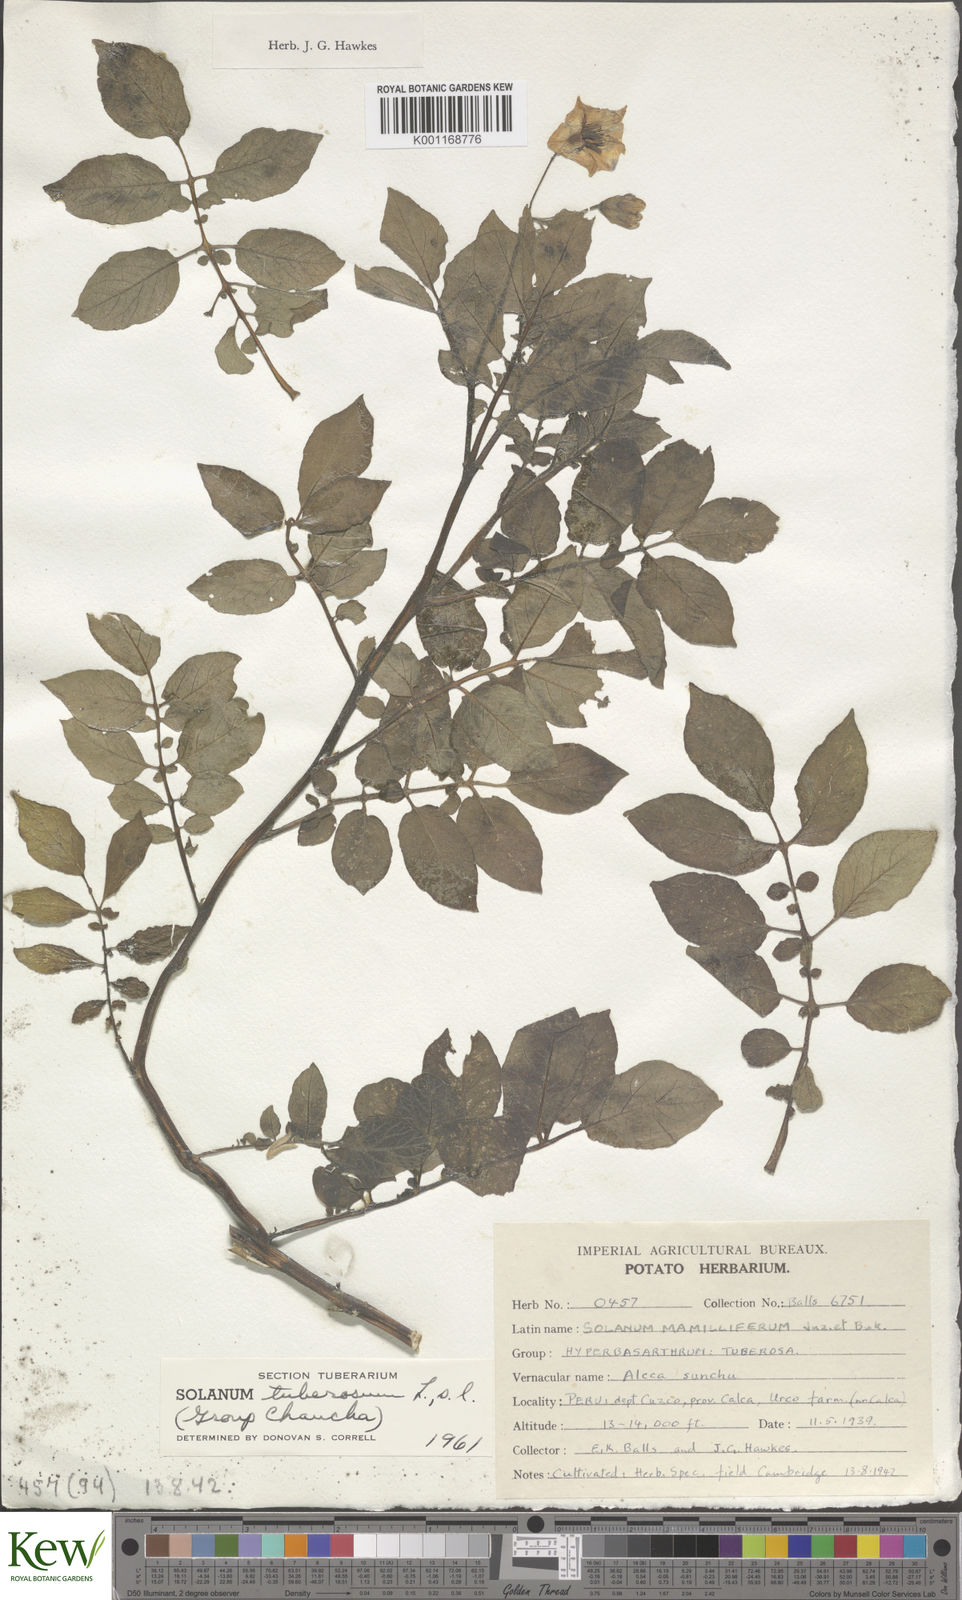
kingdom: Plantae
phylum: Tracheophyta
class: Magnoliopsida
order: Solanales
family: Solanaceae
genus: Solanum
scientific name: Solanum chaucha
